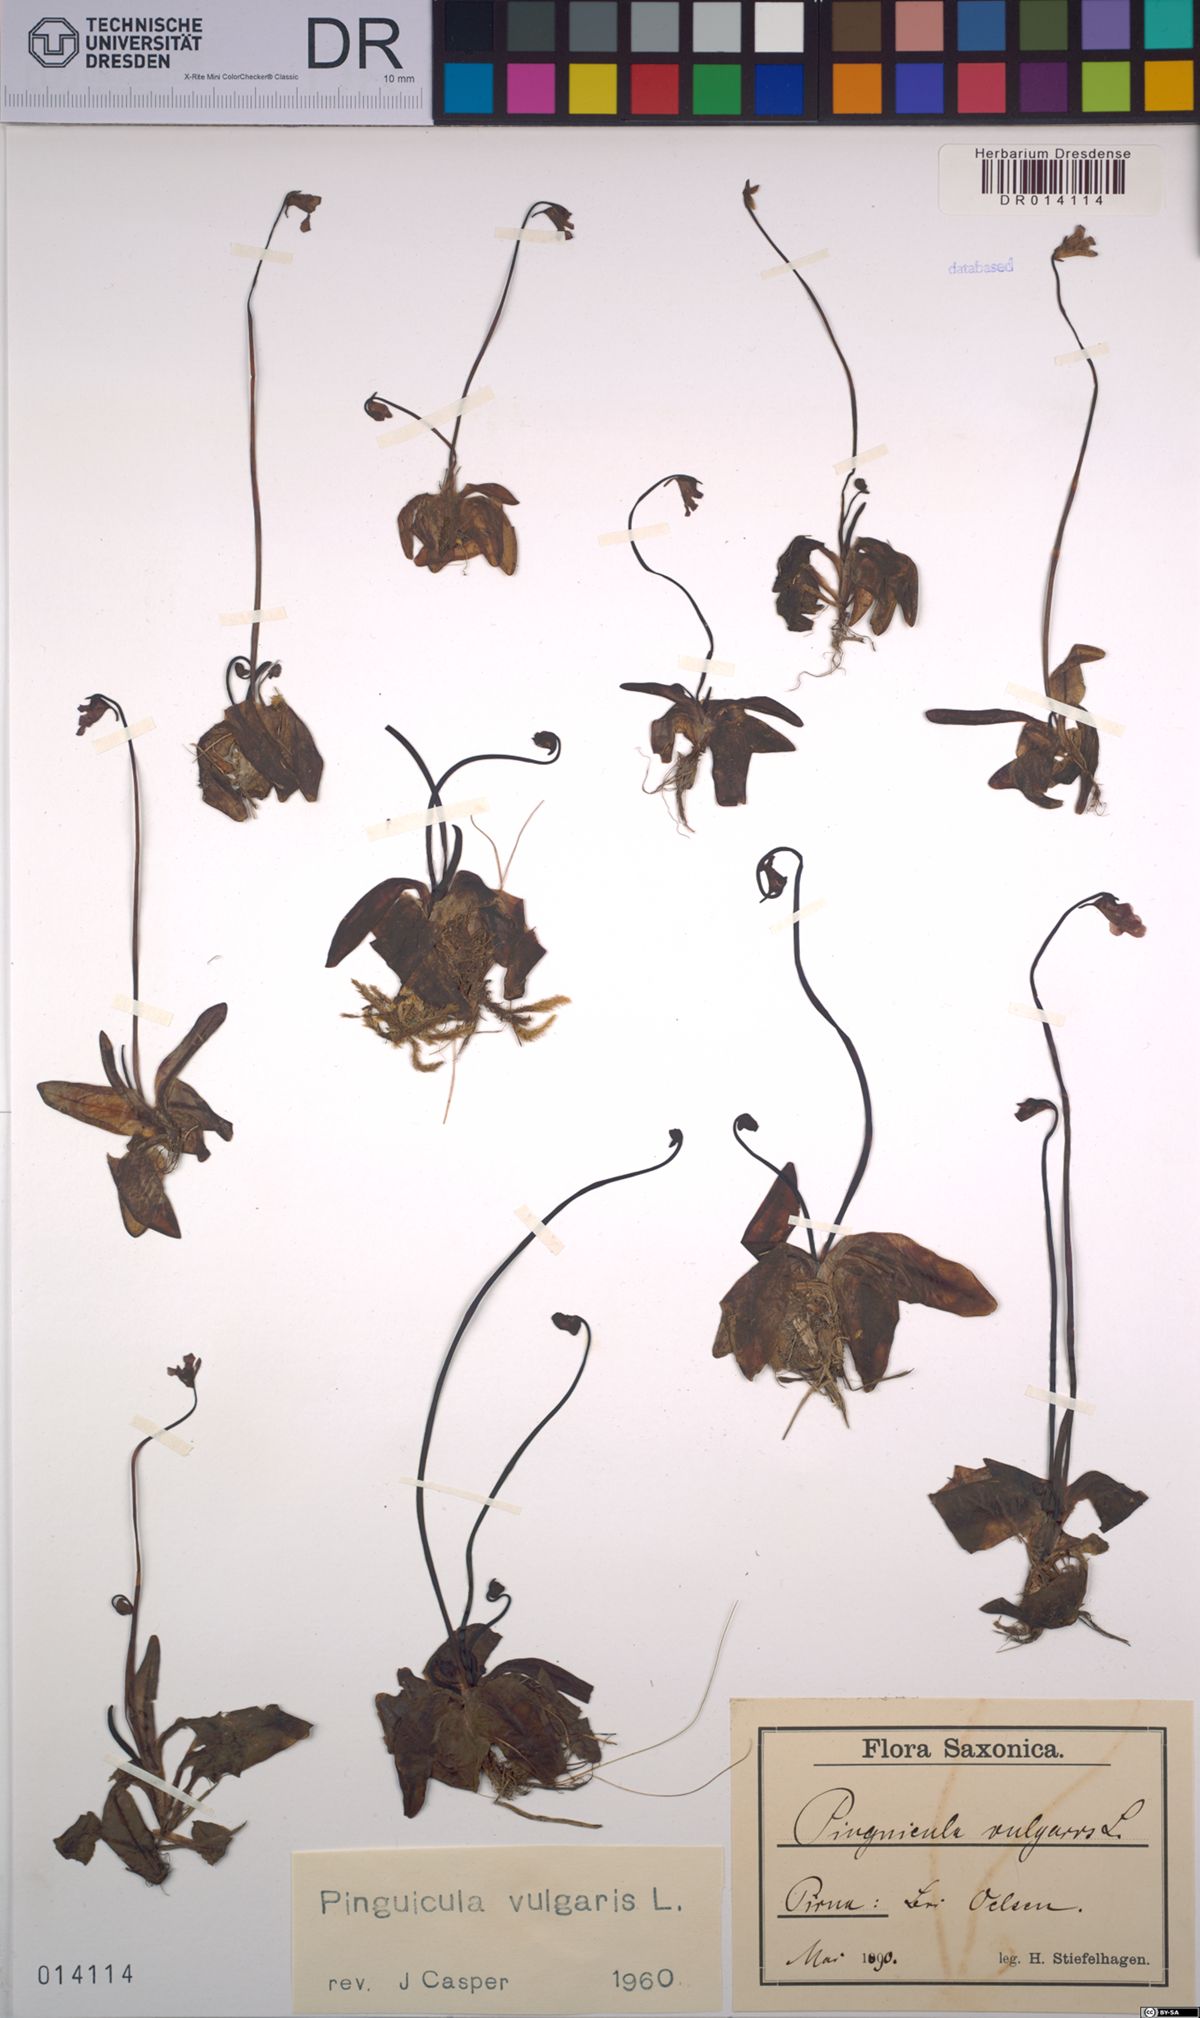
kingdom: Plantae
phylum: Tracheophyta
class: Magnoliopsida
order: Lamiales
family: Lentibulariaceae
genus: Pinguicula
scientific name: Pinguicula vulgaris
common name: Common butterwort
